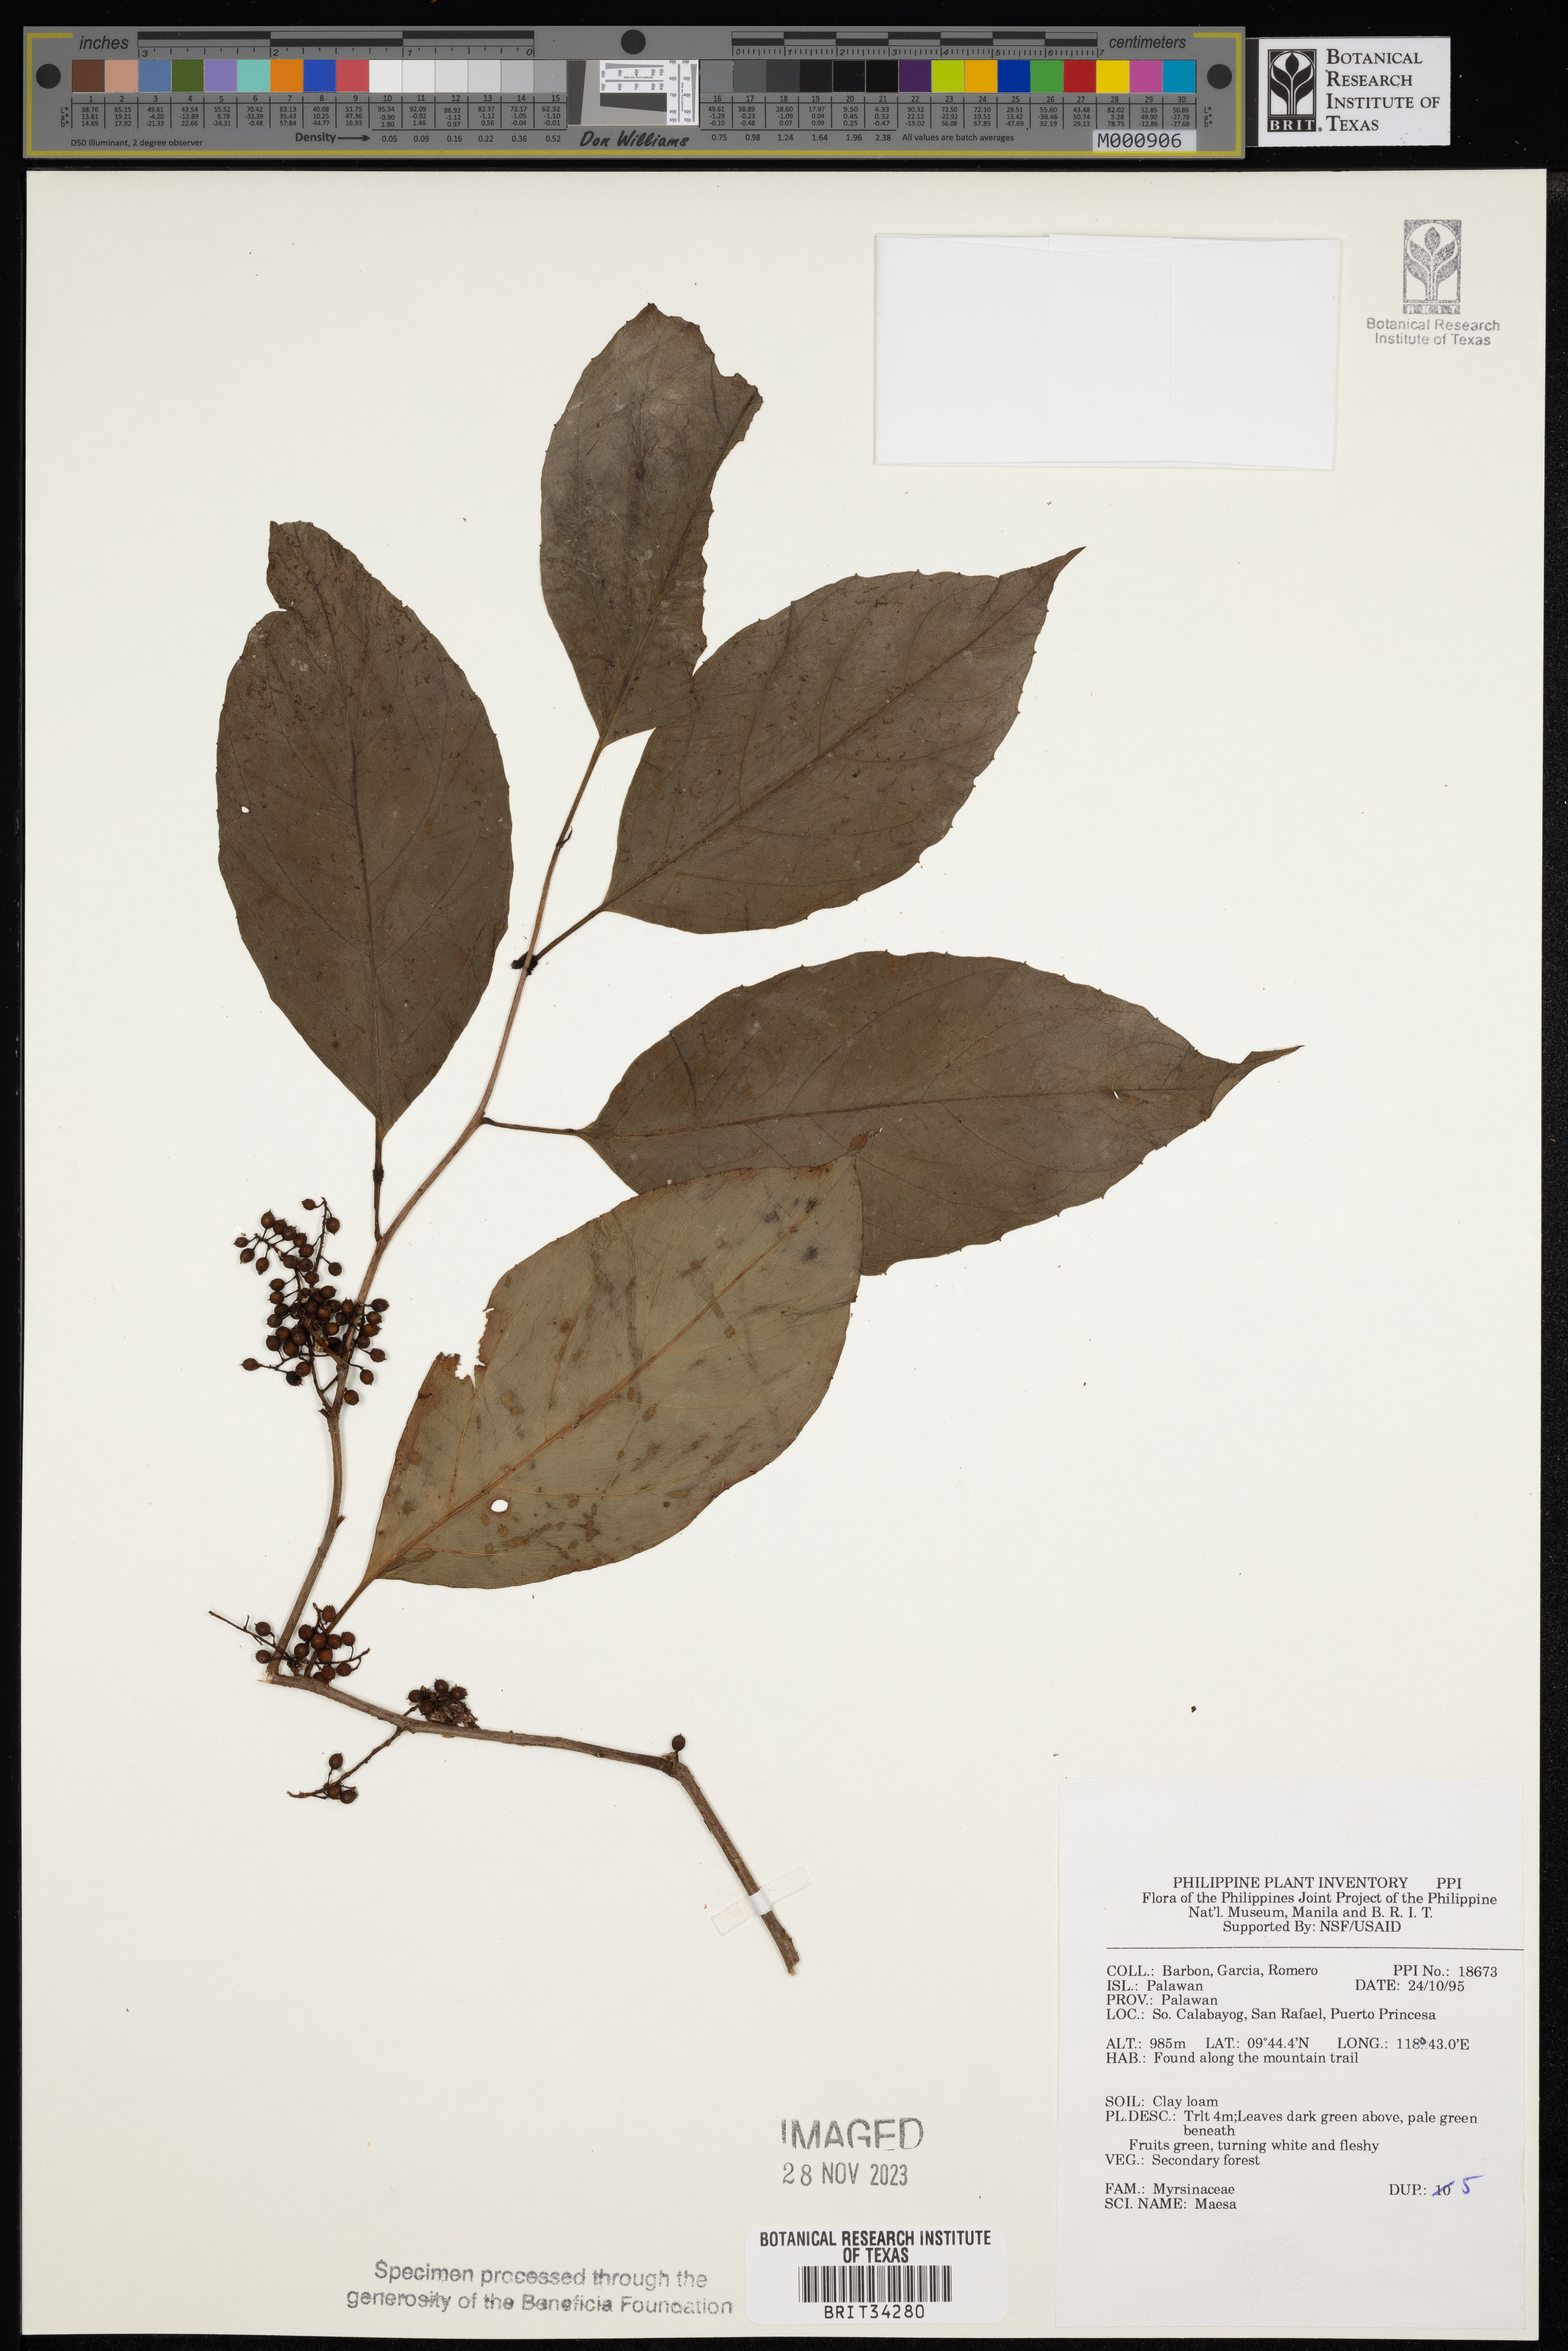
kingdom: Plantae
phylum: Tracheophyta
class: Magnoliopsida
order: Ericales
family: Primulaceae
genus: Maesa
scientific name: Maesa
